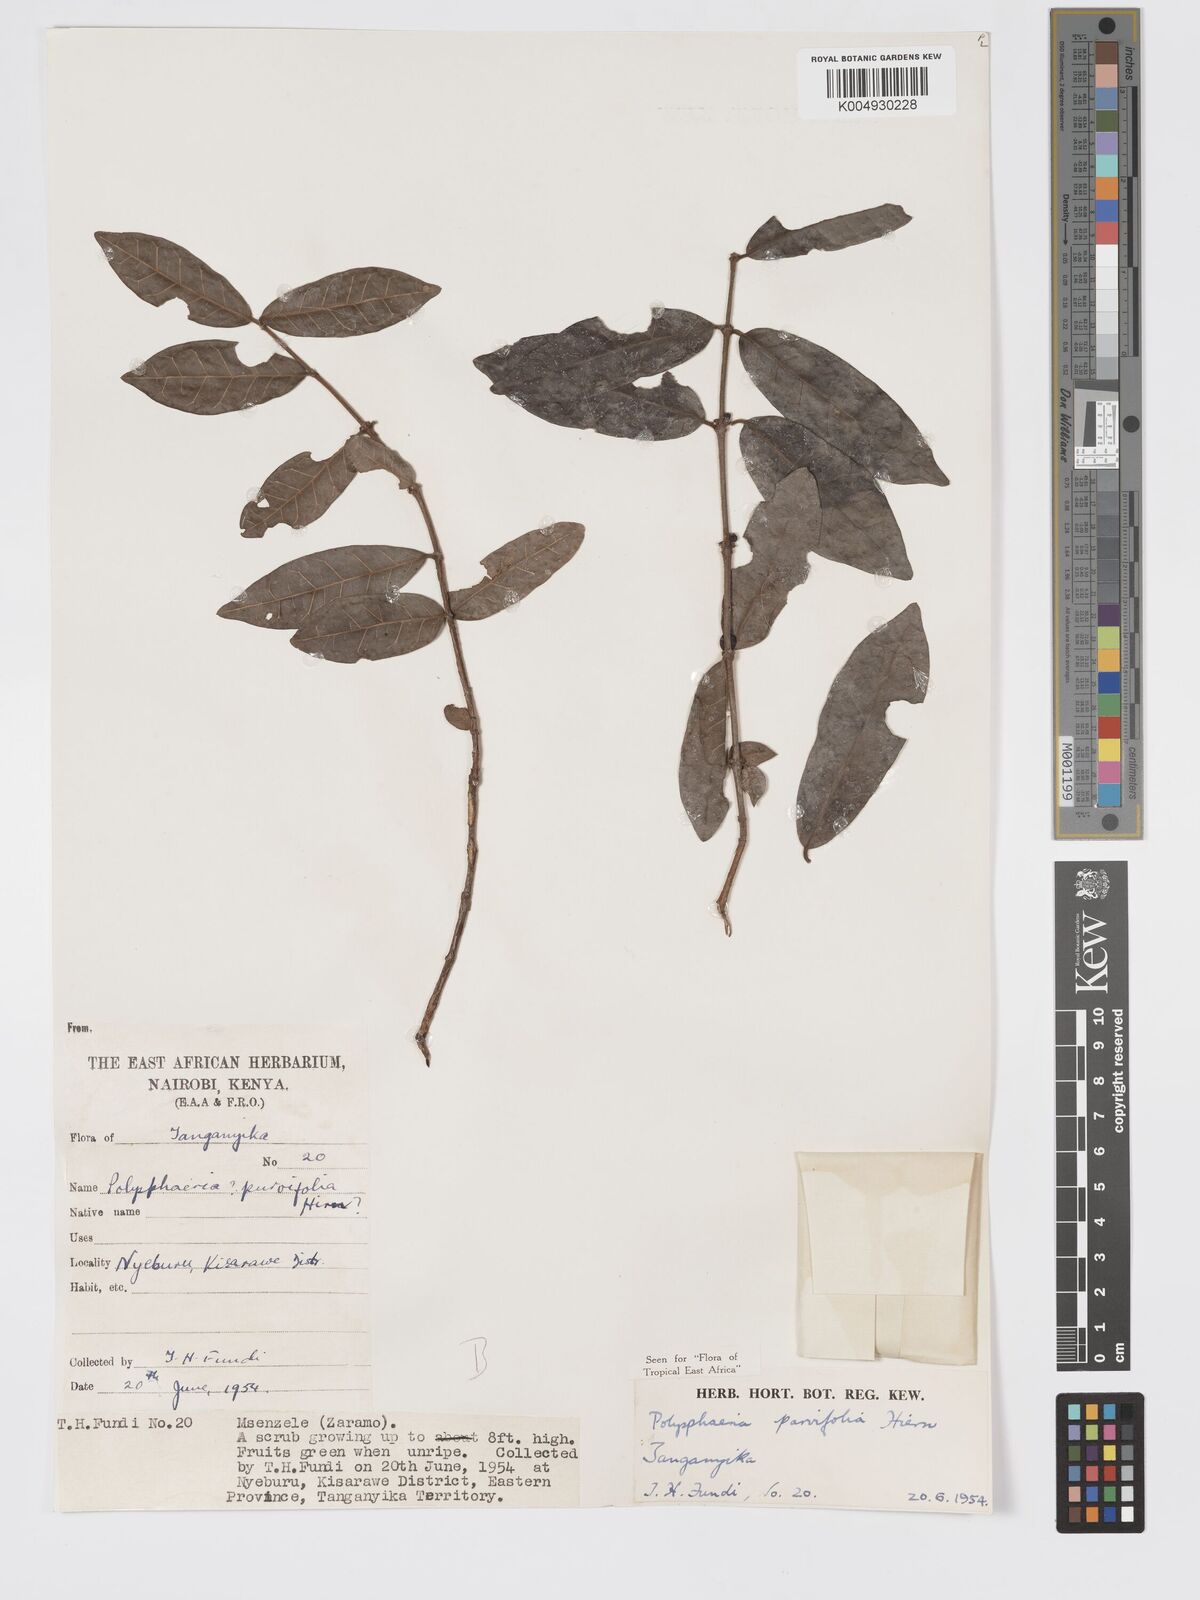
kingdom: Plantae
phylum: Tracheophyta
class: Magnoliopsida
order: Gentianales
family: Rubiaceae
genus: Polysphaeria
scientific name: Polysphaeria parvifolia
